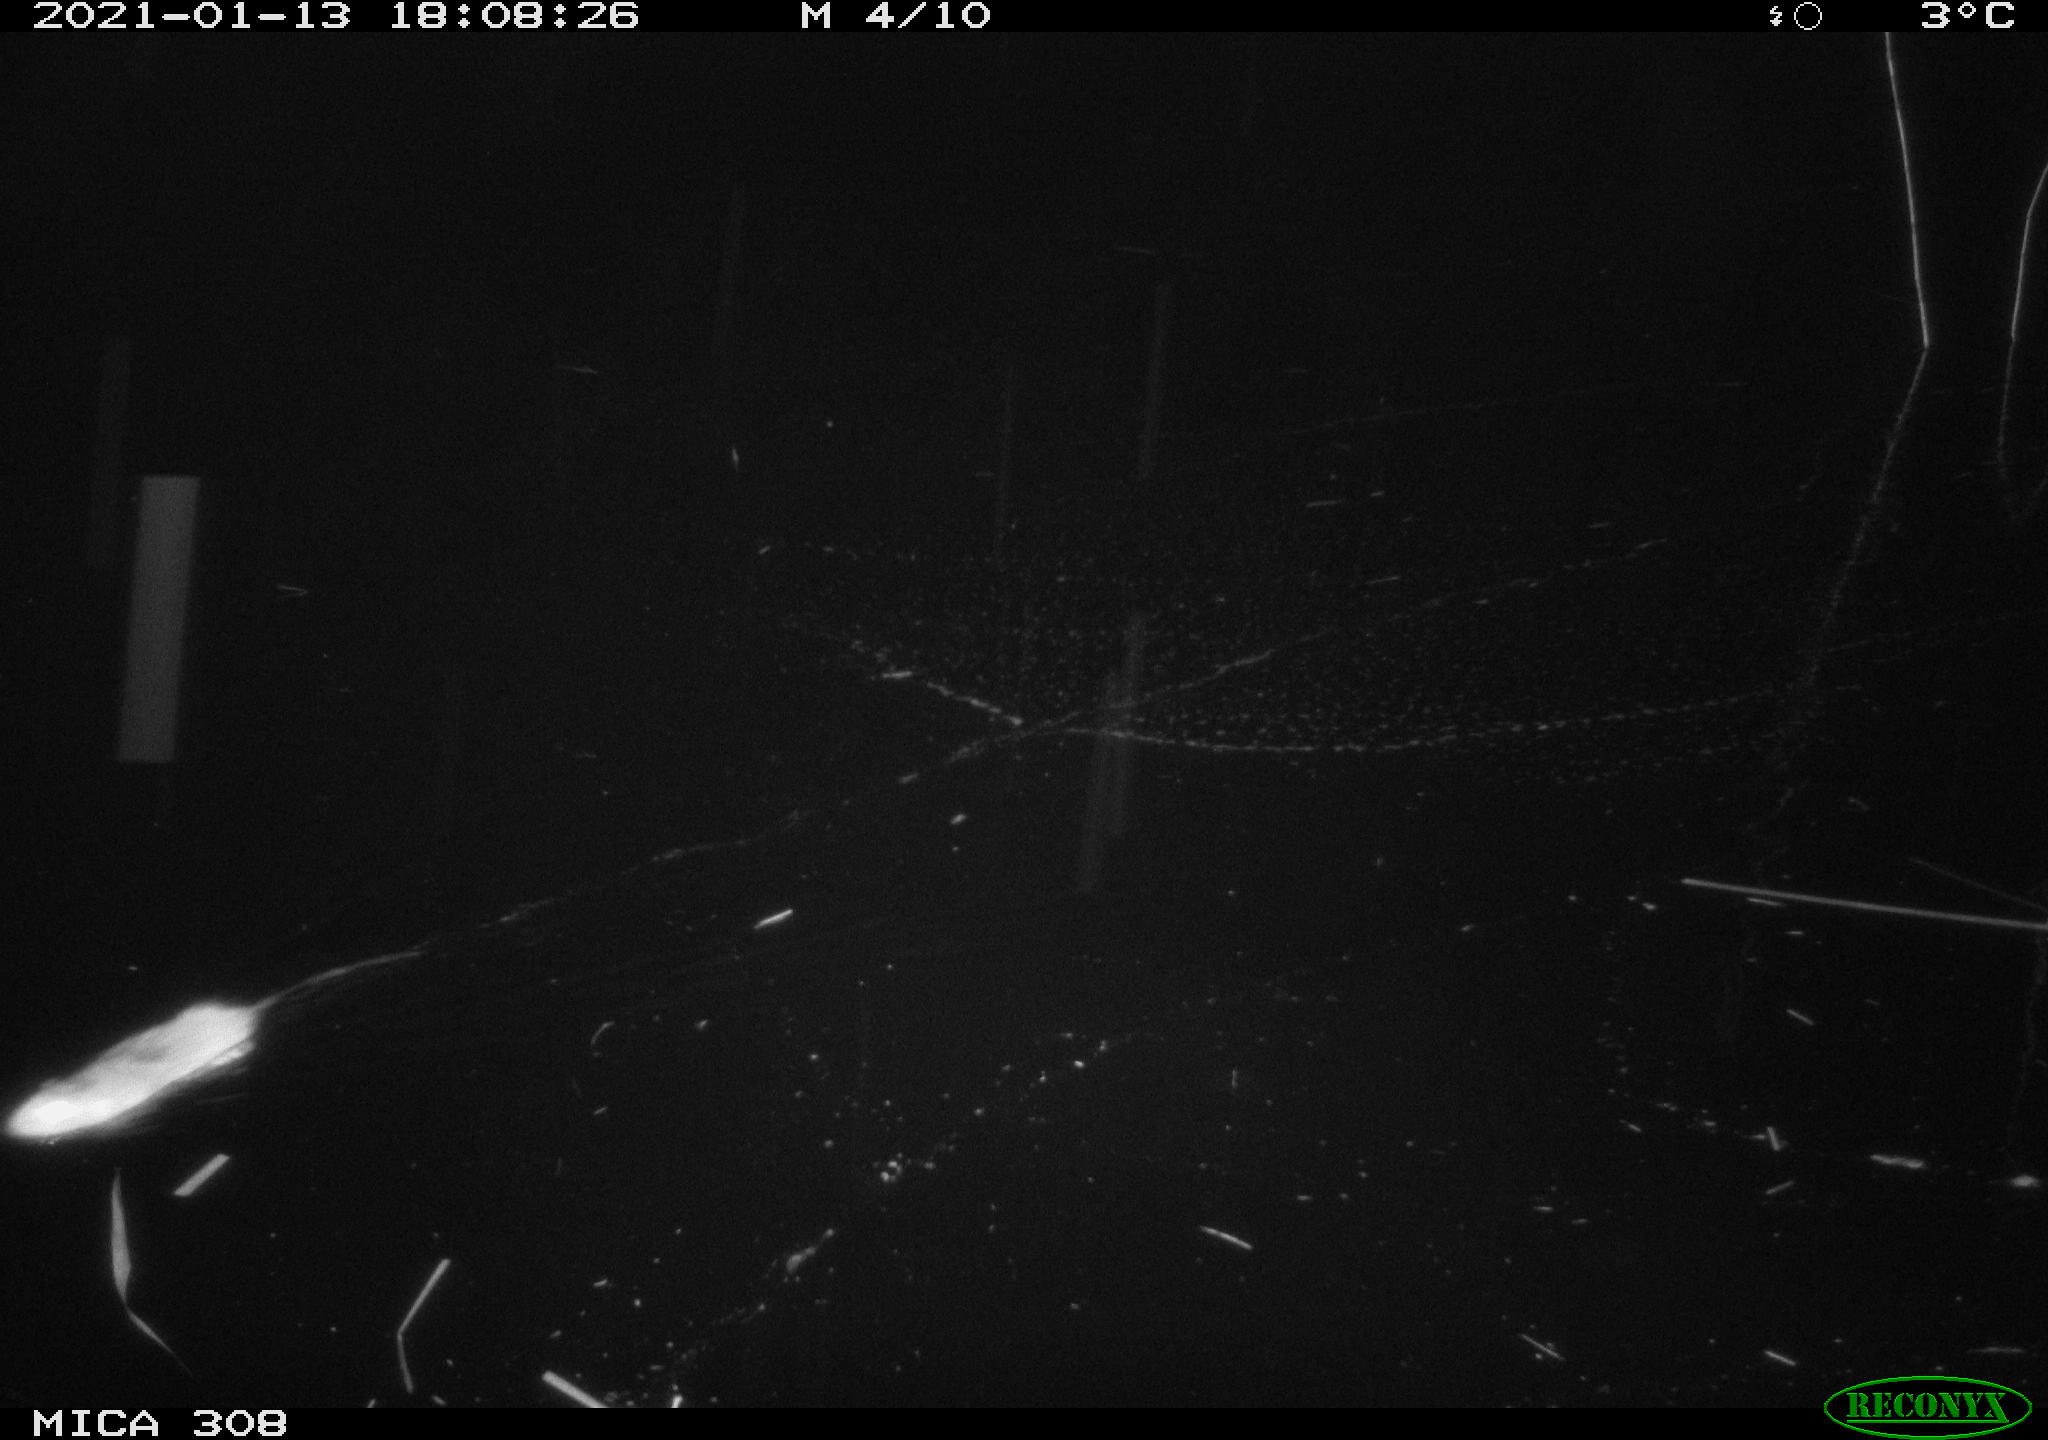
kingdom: Animalia
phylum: Chordata
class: Mammalia
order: Rodentia
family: Muridae
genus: Rattus
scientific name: Rattus norvegicus
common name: Brown rat
